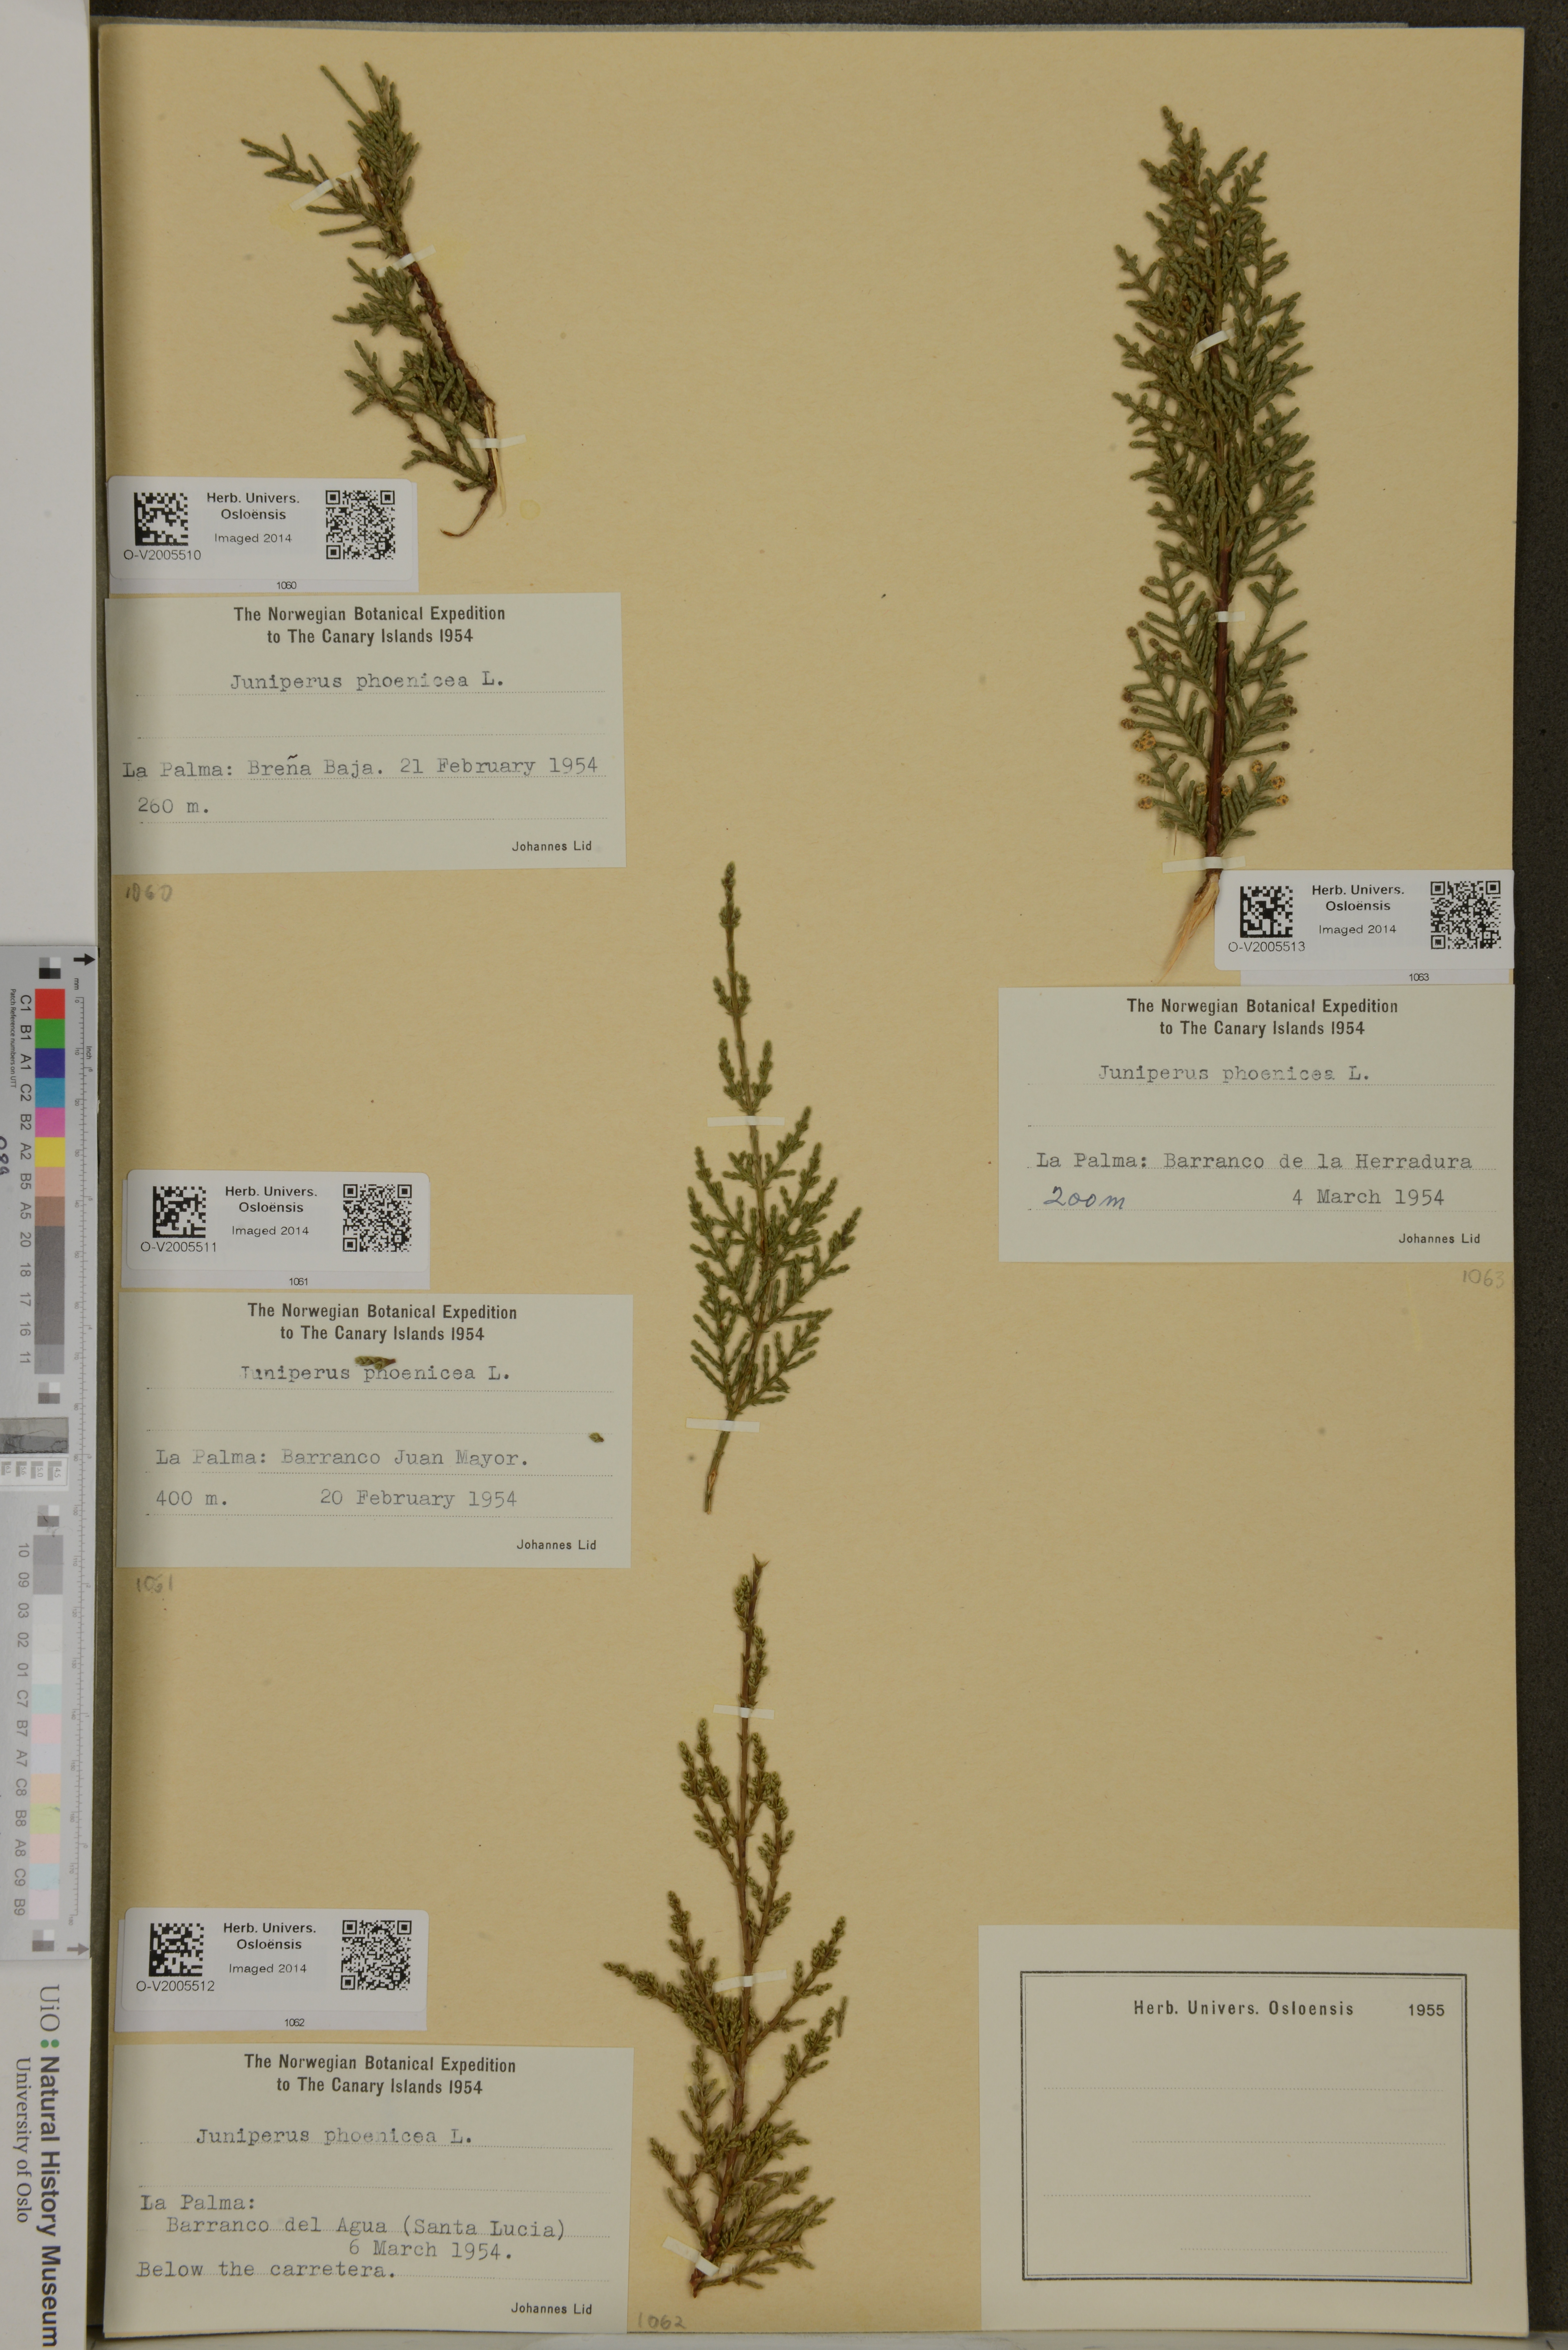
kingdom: Plantae
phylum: Tracheophyta
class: Pinopsida
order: Pinales
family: Cupressaceae
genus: Juniperus
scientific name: Juniperus phoenicea
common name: Phoenician juniper
